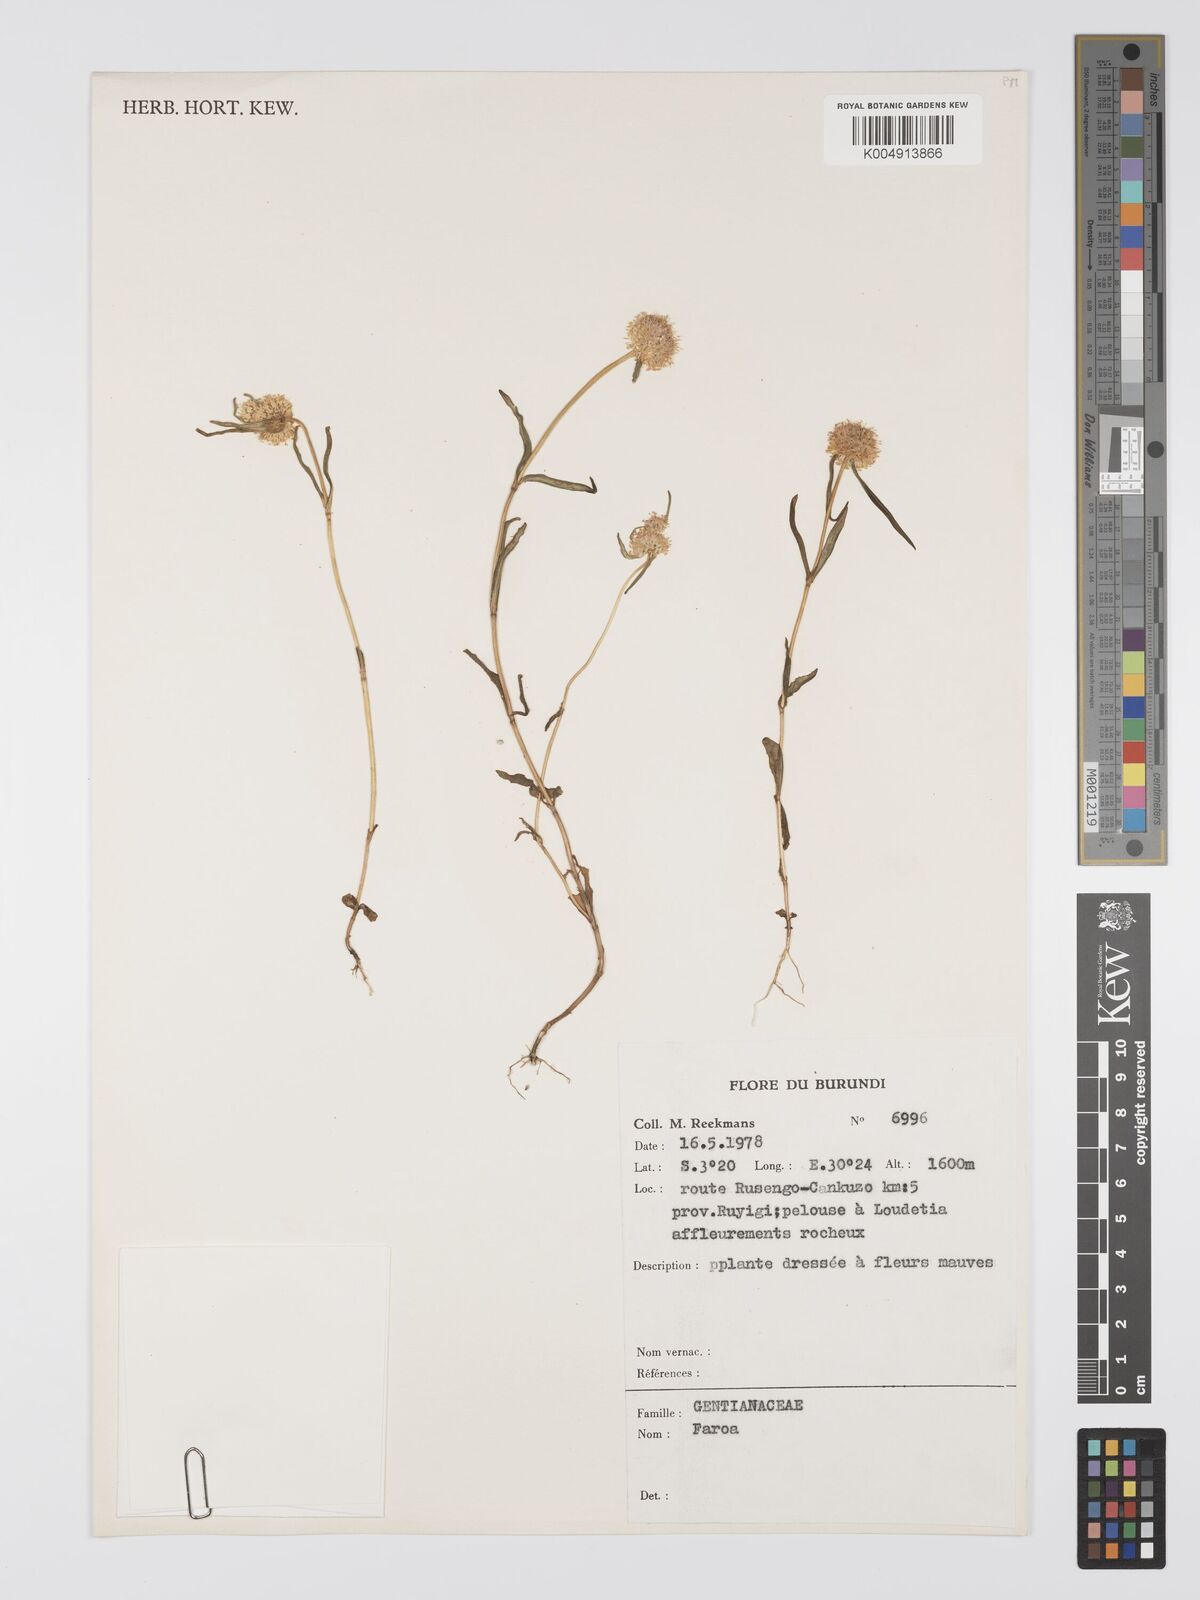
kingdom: Plantae
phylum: Tracheophyta
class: Magnoliopsida
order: Gentianales
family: Gentianaceae
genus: Faroa
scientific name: Faroa
